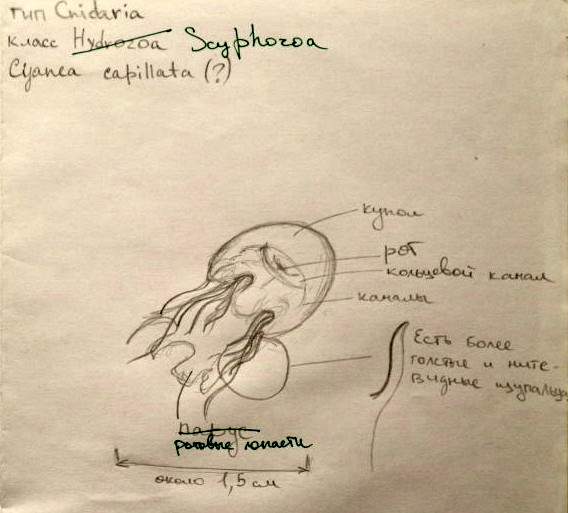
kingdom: Animalia
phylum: Cnidaria
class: Scyphozoa
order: Semaeostomeae
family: Cyaneidae
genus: Cyanea
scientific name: Cyanea capillata
